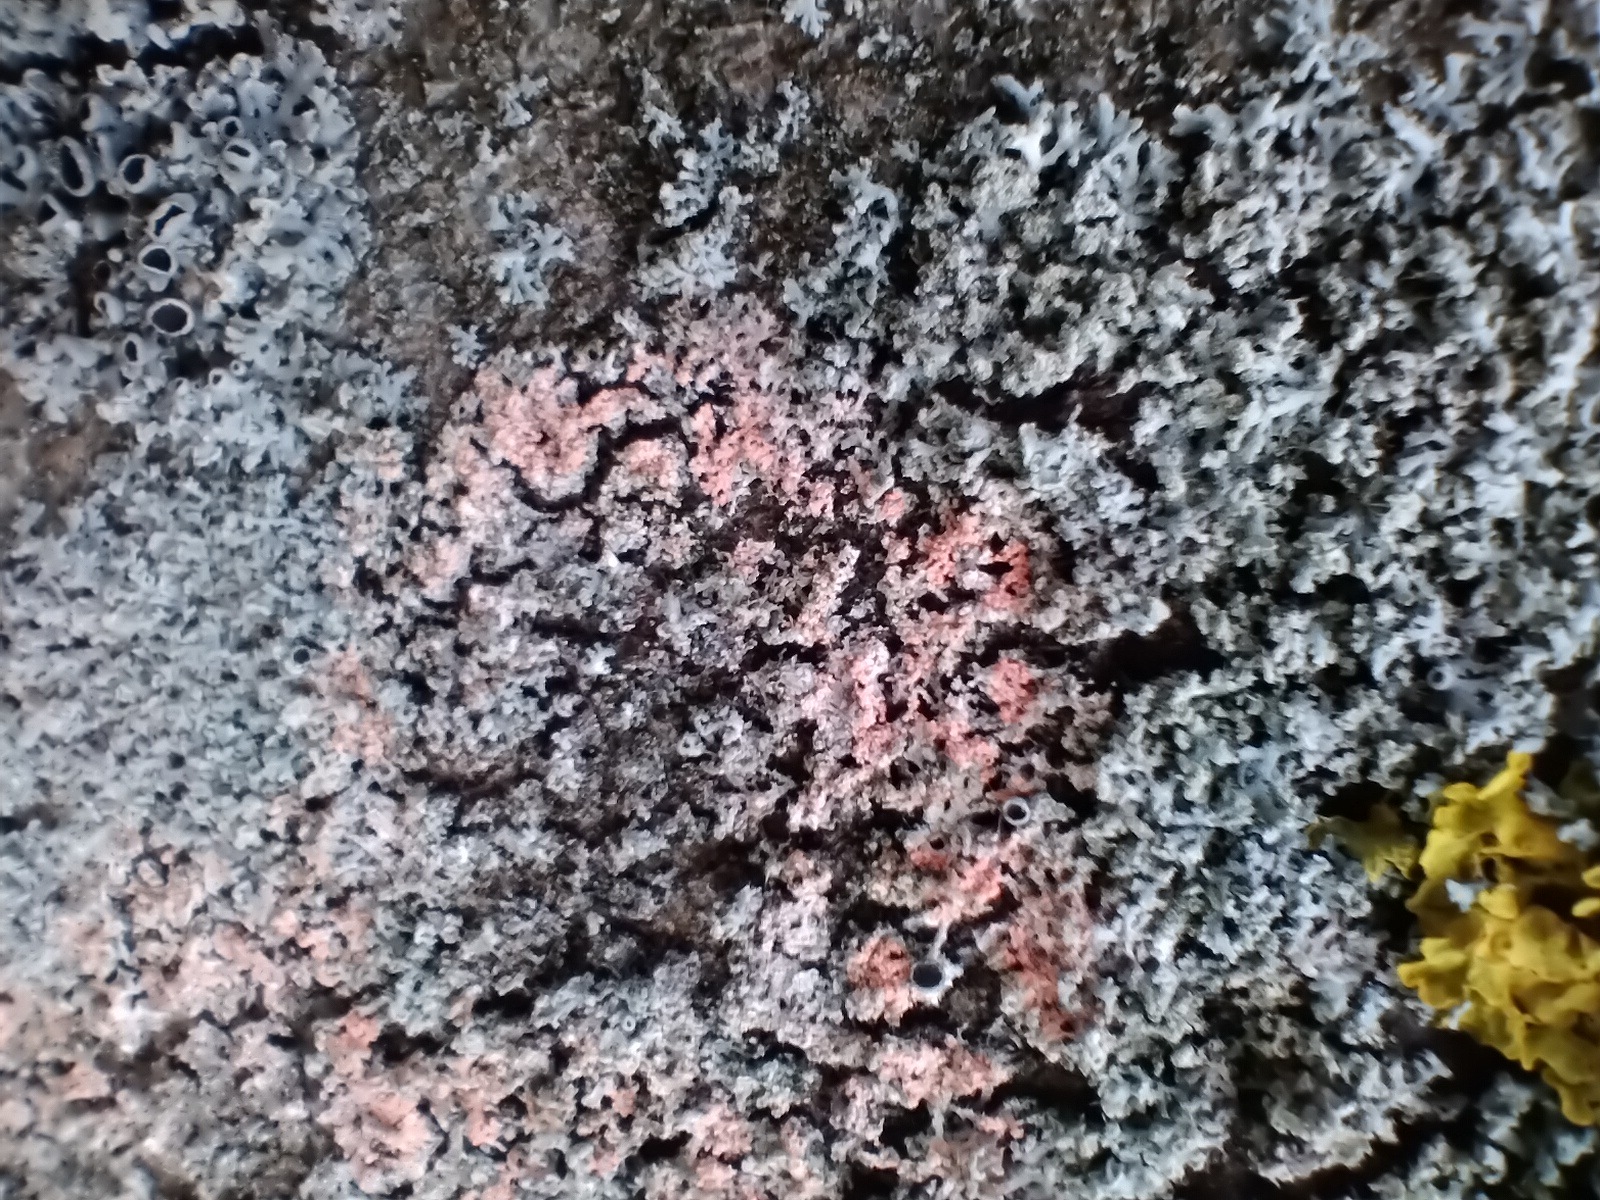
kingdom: Fungi
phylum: Basidiomycota
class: Agaricomycetes
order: Corticiales
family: Corticiaceae
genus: Erythricium
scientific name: Erythricium aurantiacum
